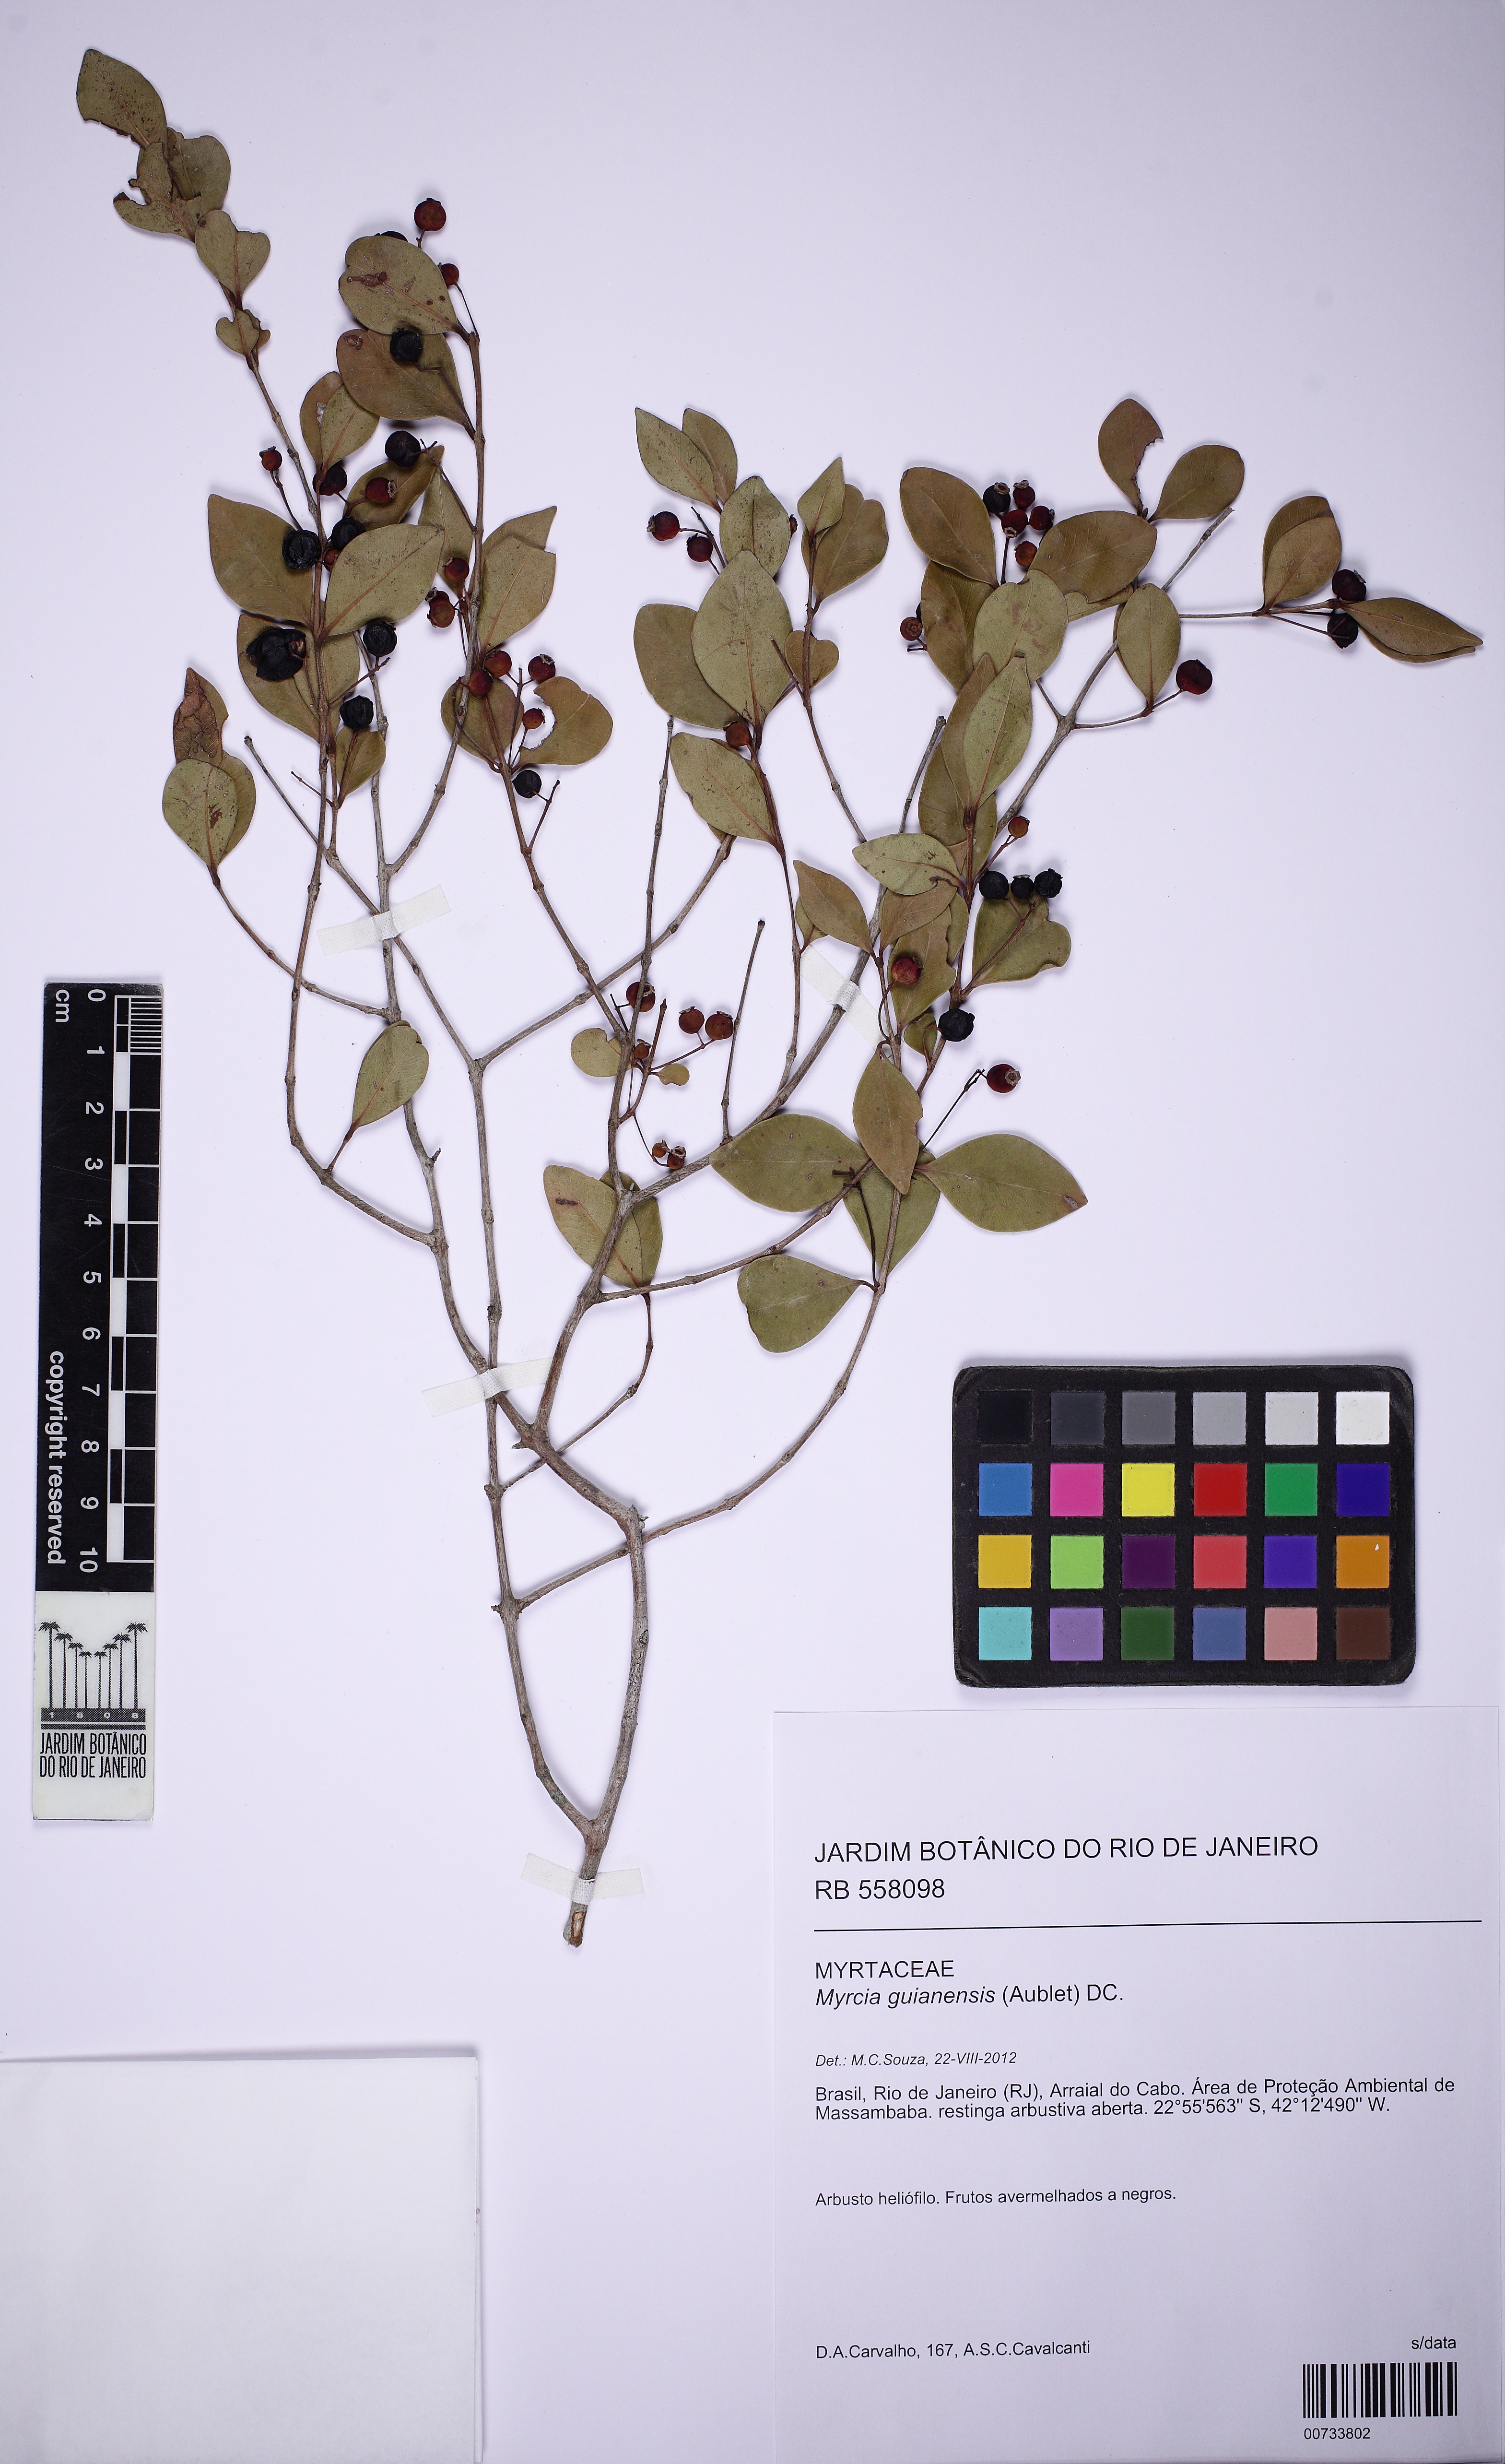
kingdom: Plantae
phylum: Tracheophyta
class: Magnoliopsida
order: Myrtales
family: Myrtaceae
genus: Myrcia
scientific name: Myrcia guianensis
